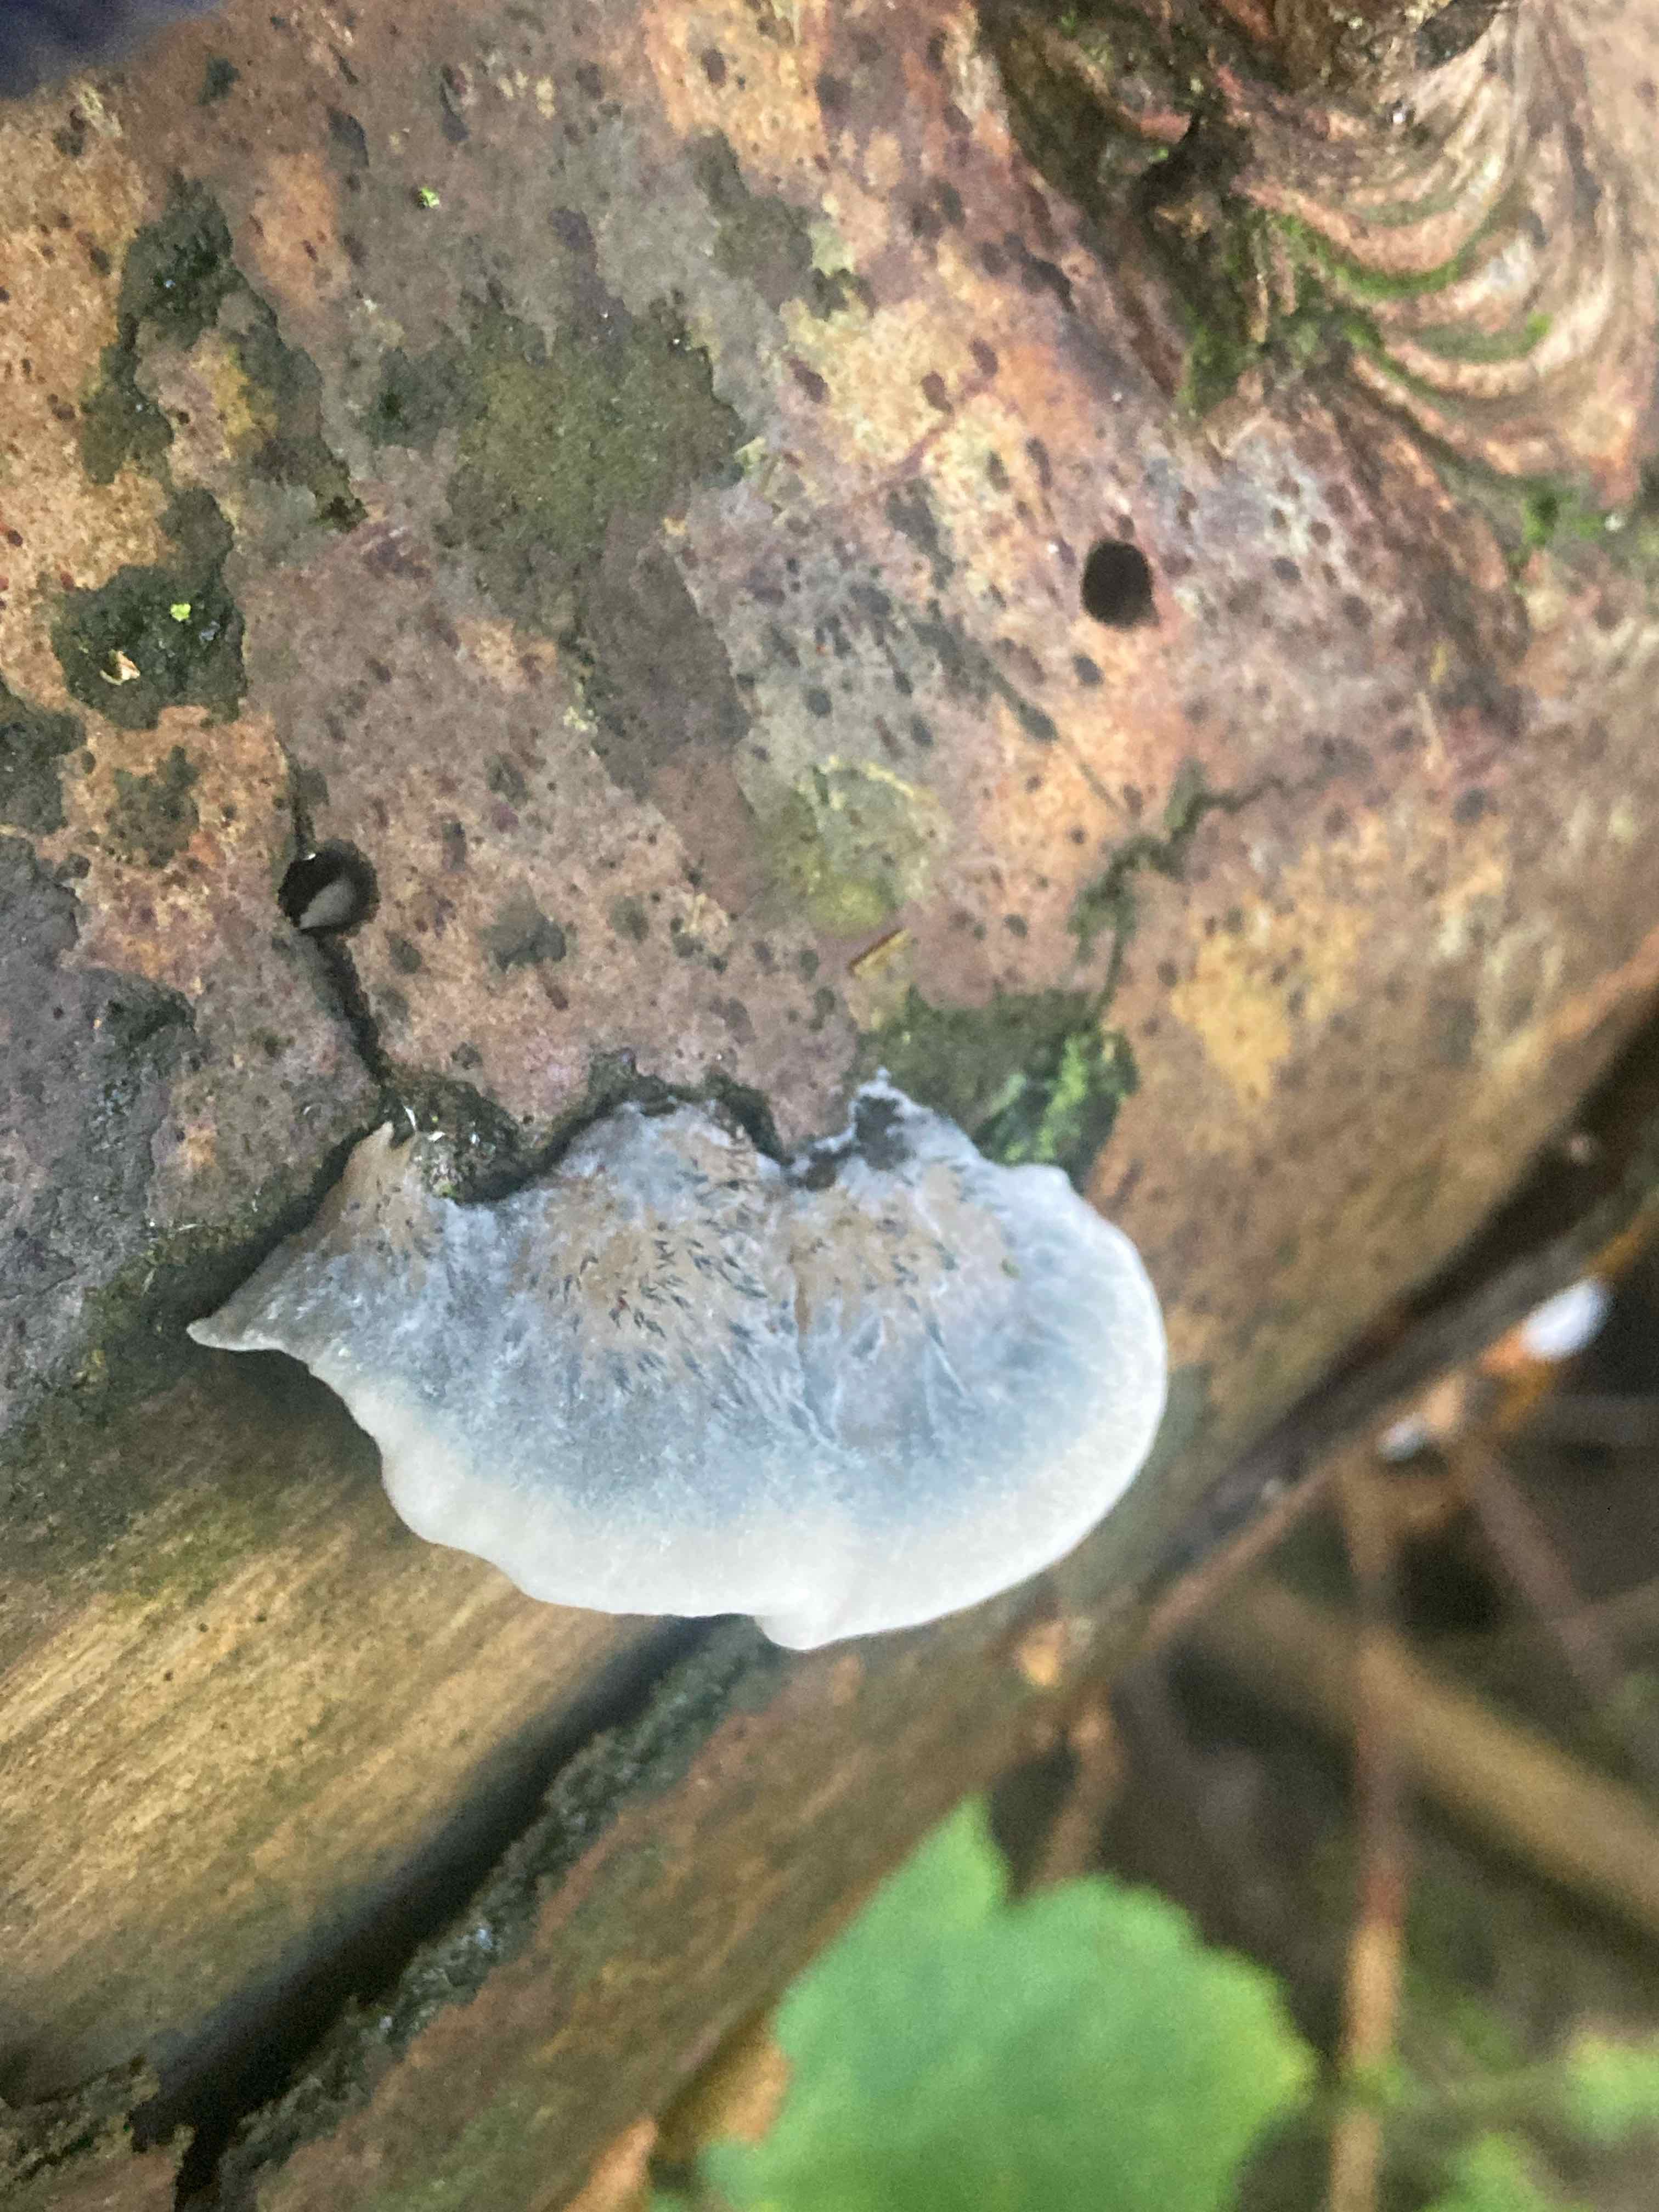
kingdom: Fungi
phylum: Basidiomycota
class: Agaricomycetes
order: Polyporales
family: Polyporaceae
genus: Cyanosporus
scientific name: Cyanosporus caesius
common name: blålig kødporesvamp
